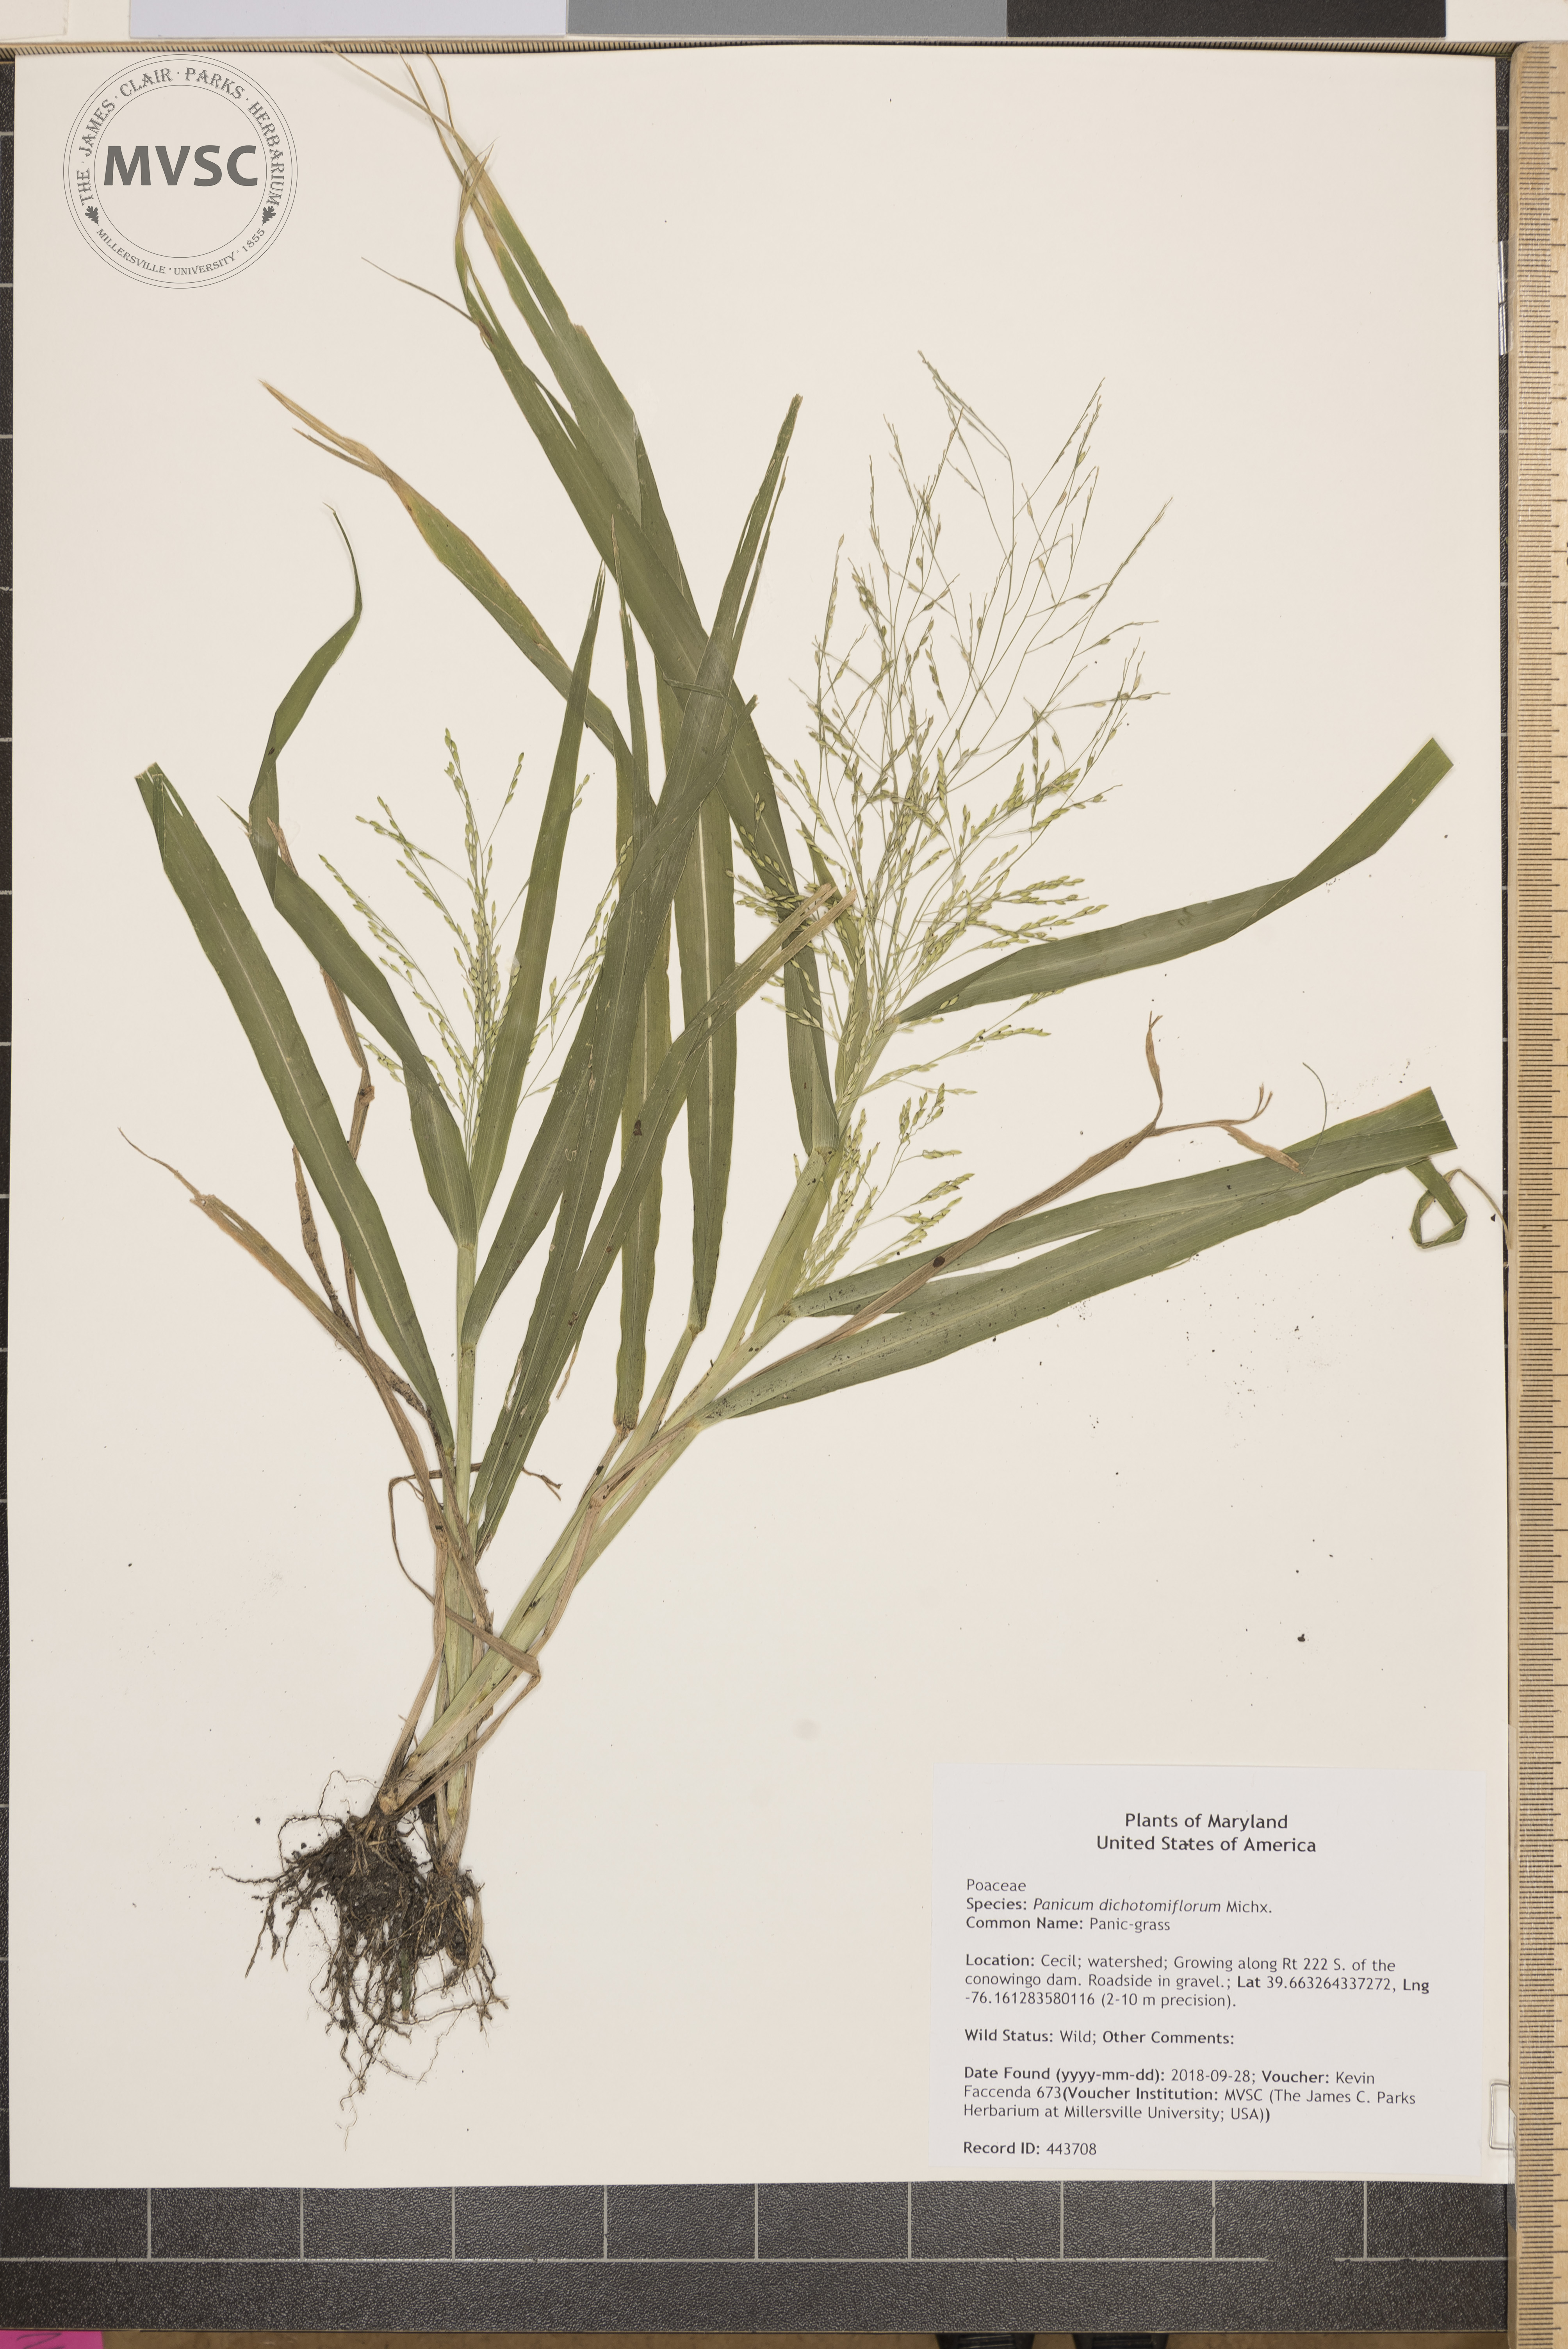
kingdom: Plantae
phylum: Tracheophyta
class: Liliopsida
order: Poales
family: Poaceae
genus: Panicum
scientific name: Panicum dichotomiflorum
